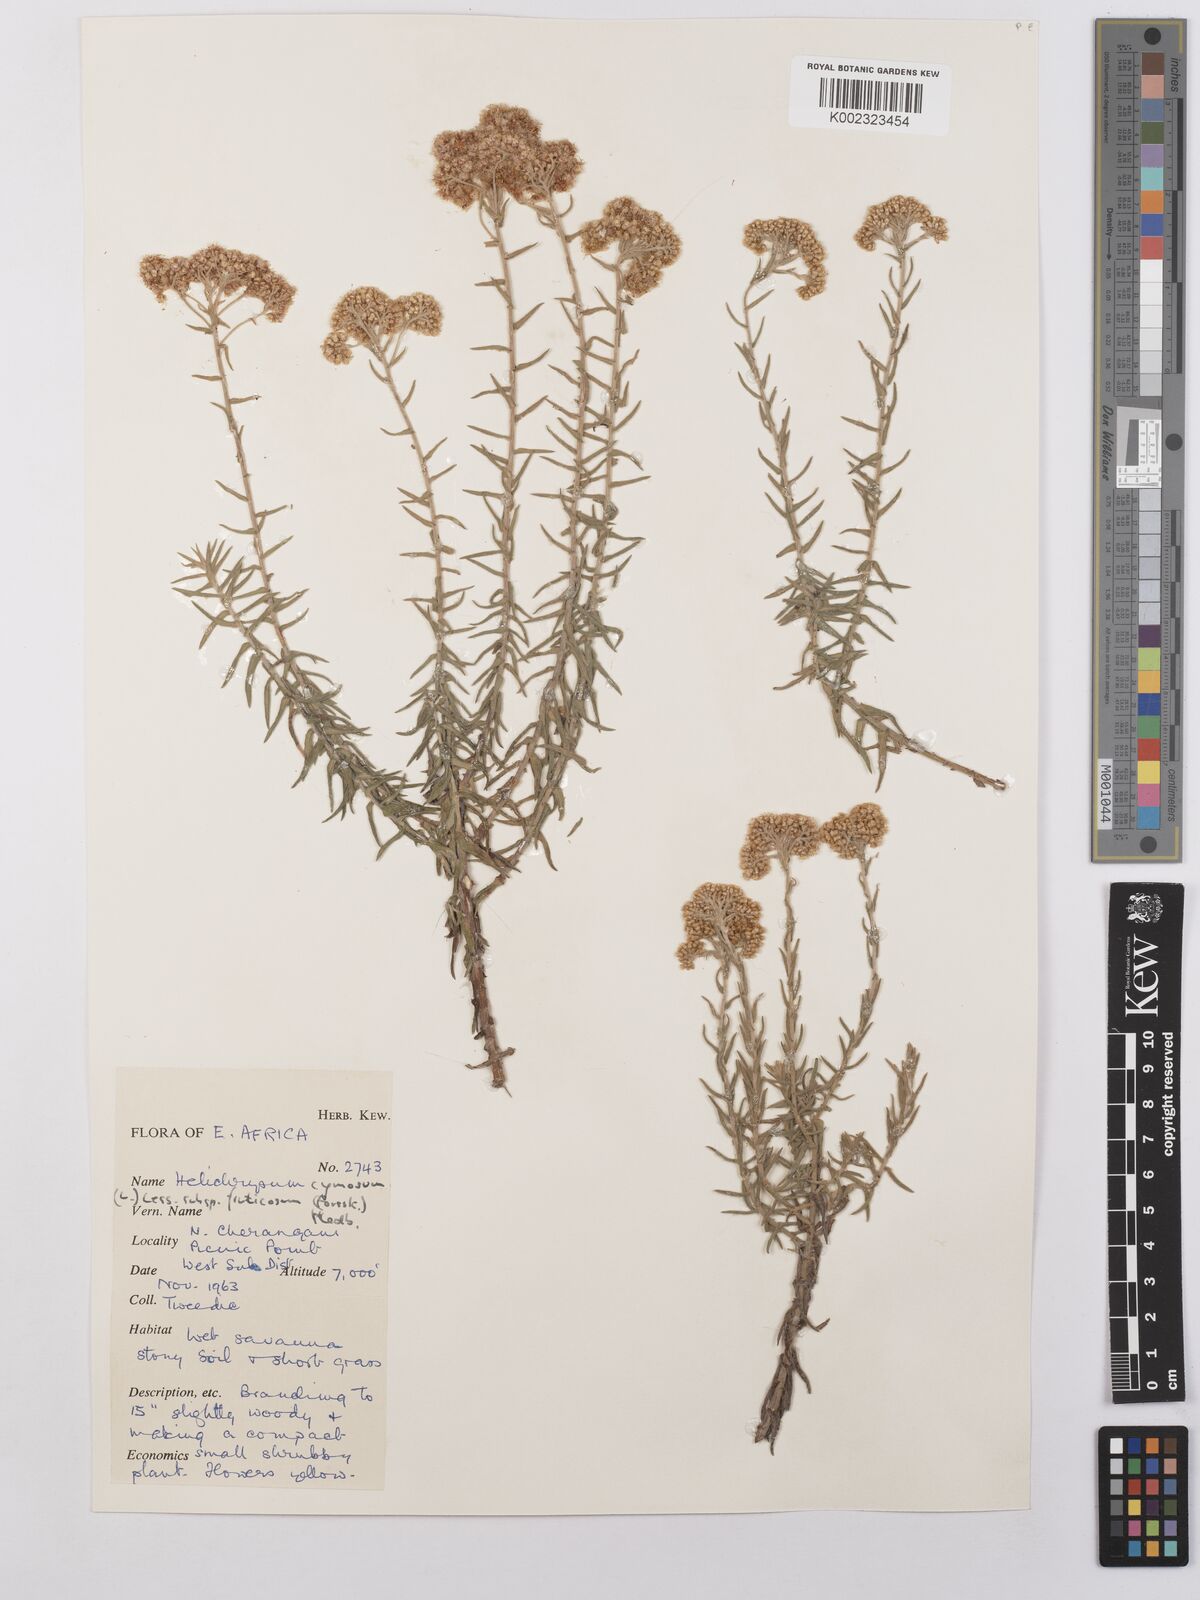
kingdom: Plantae
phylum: Tracheophyta
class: Magnoliopsida
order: Asterales
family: Asteraceae
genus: Helichrysum
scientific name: Helichrysum forskahlii
